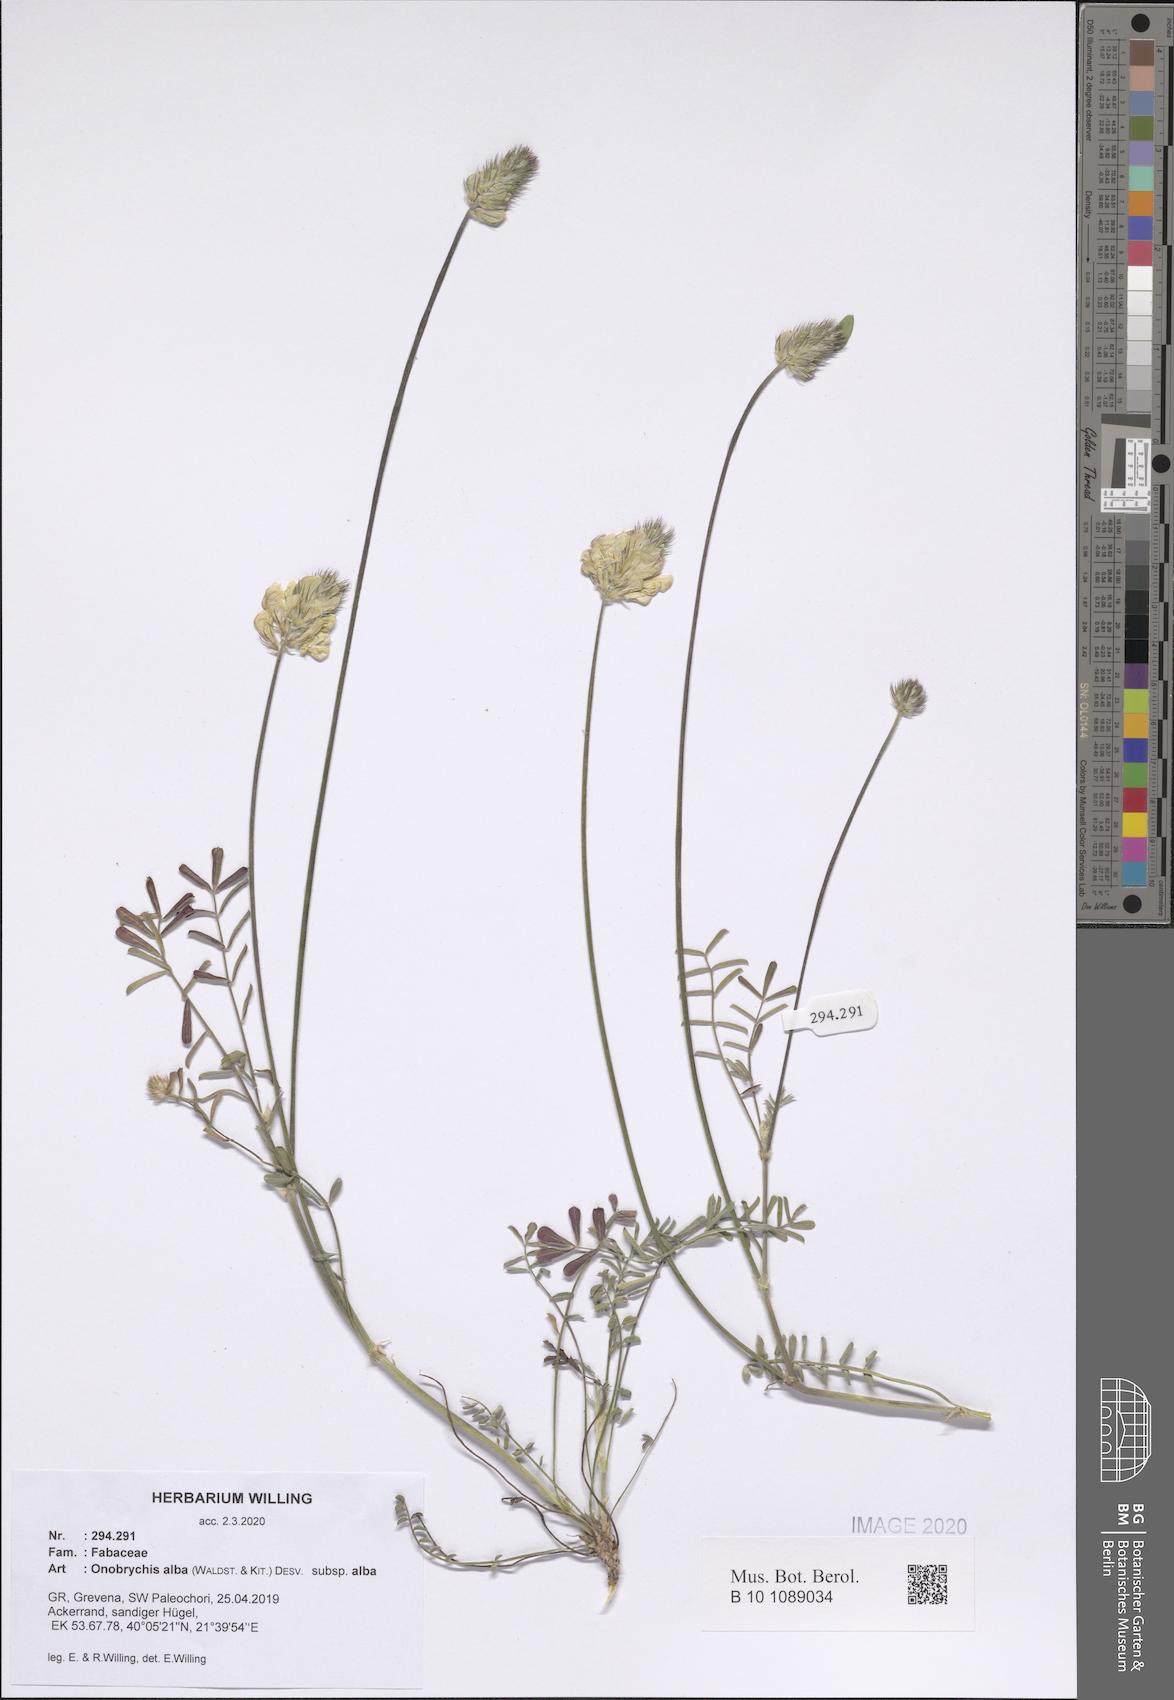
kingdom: Plantae
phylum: Tracheophyta
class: Magnoliopsida
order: Fabales
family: Fabaceae
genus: Onobrychis
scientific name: Onobrychis alba
